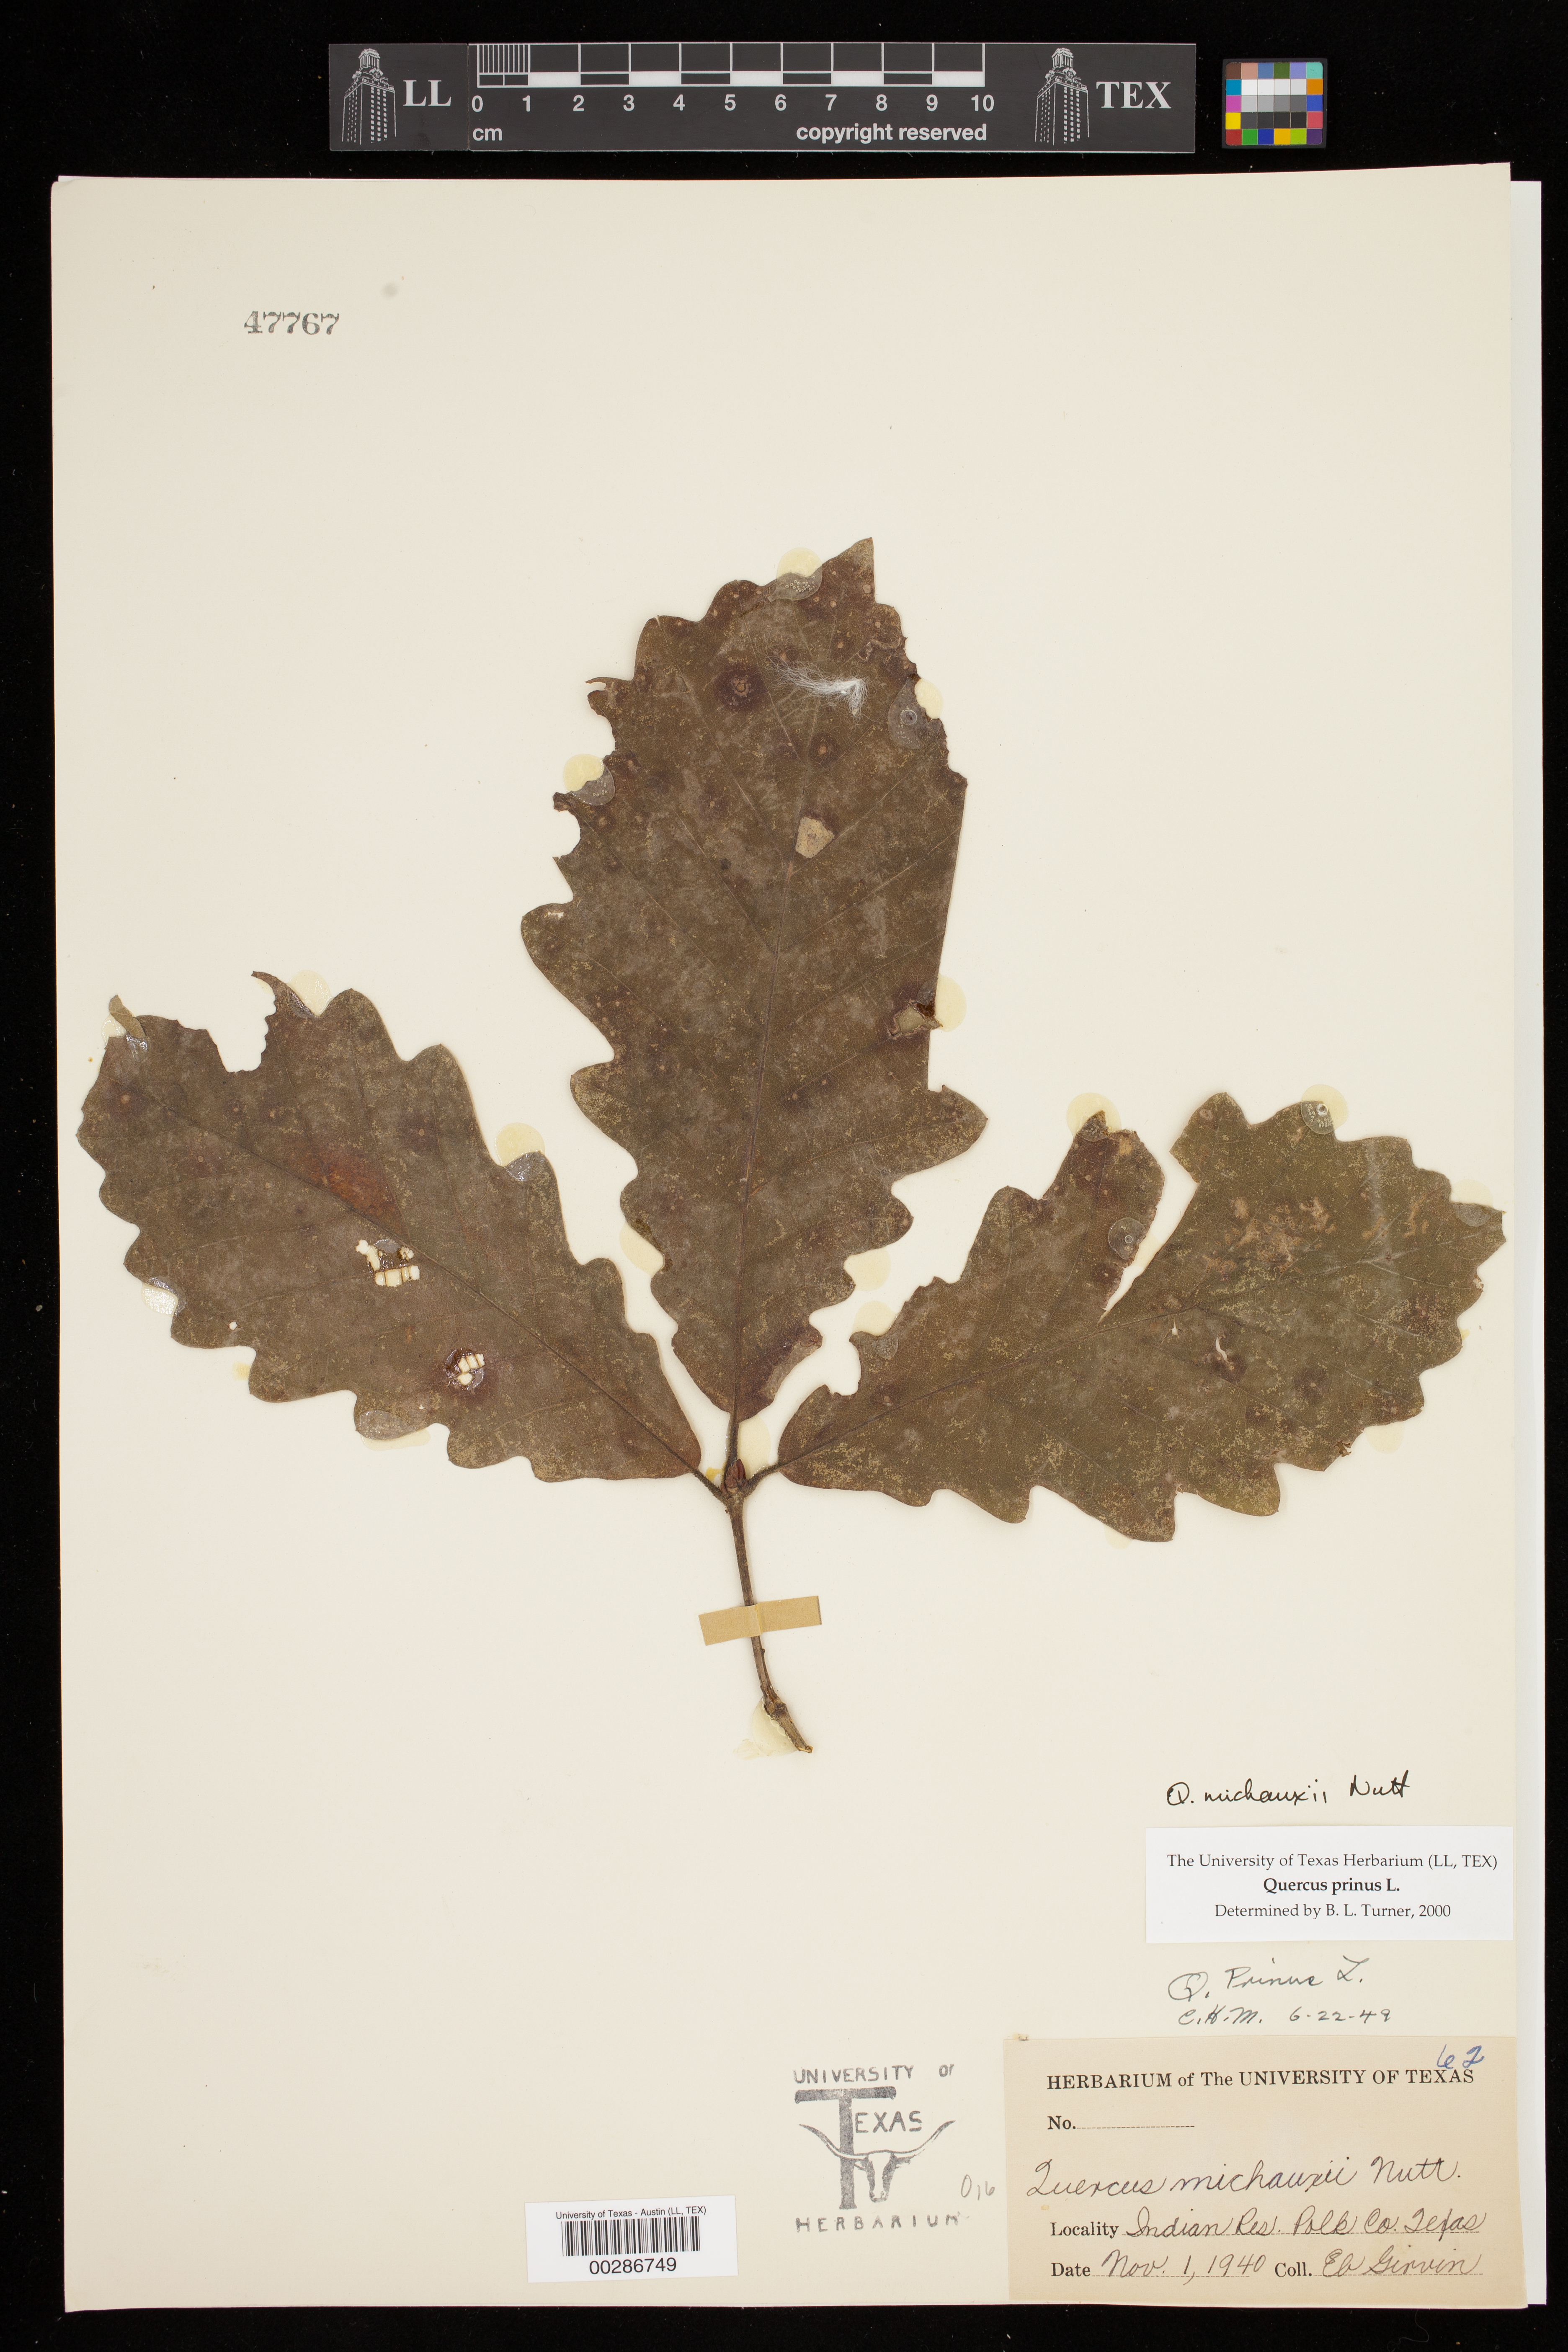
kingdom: Plantae
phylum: Tracheophyta
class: Magnoliopsida
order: Fagales
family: Fagaceae
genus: Quercus
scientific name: Quercus michauxii
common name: Swamp chestnut oak
